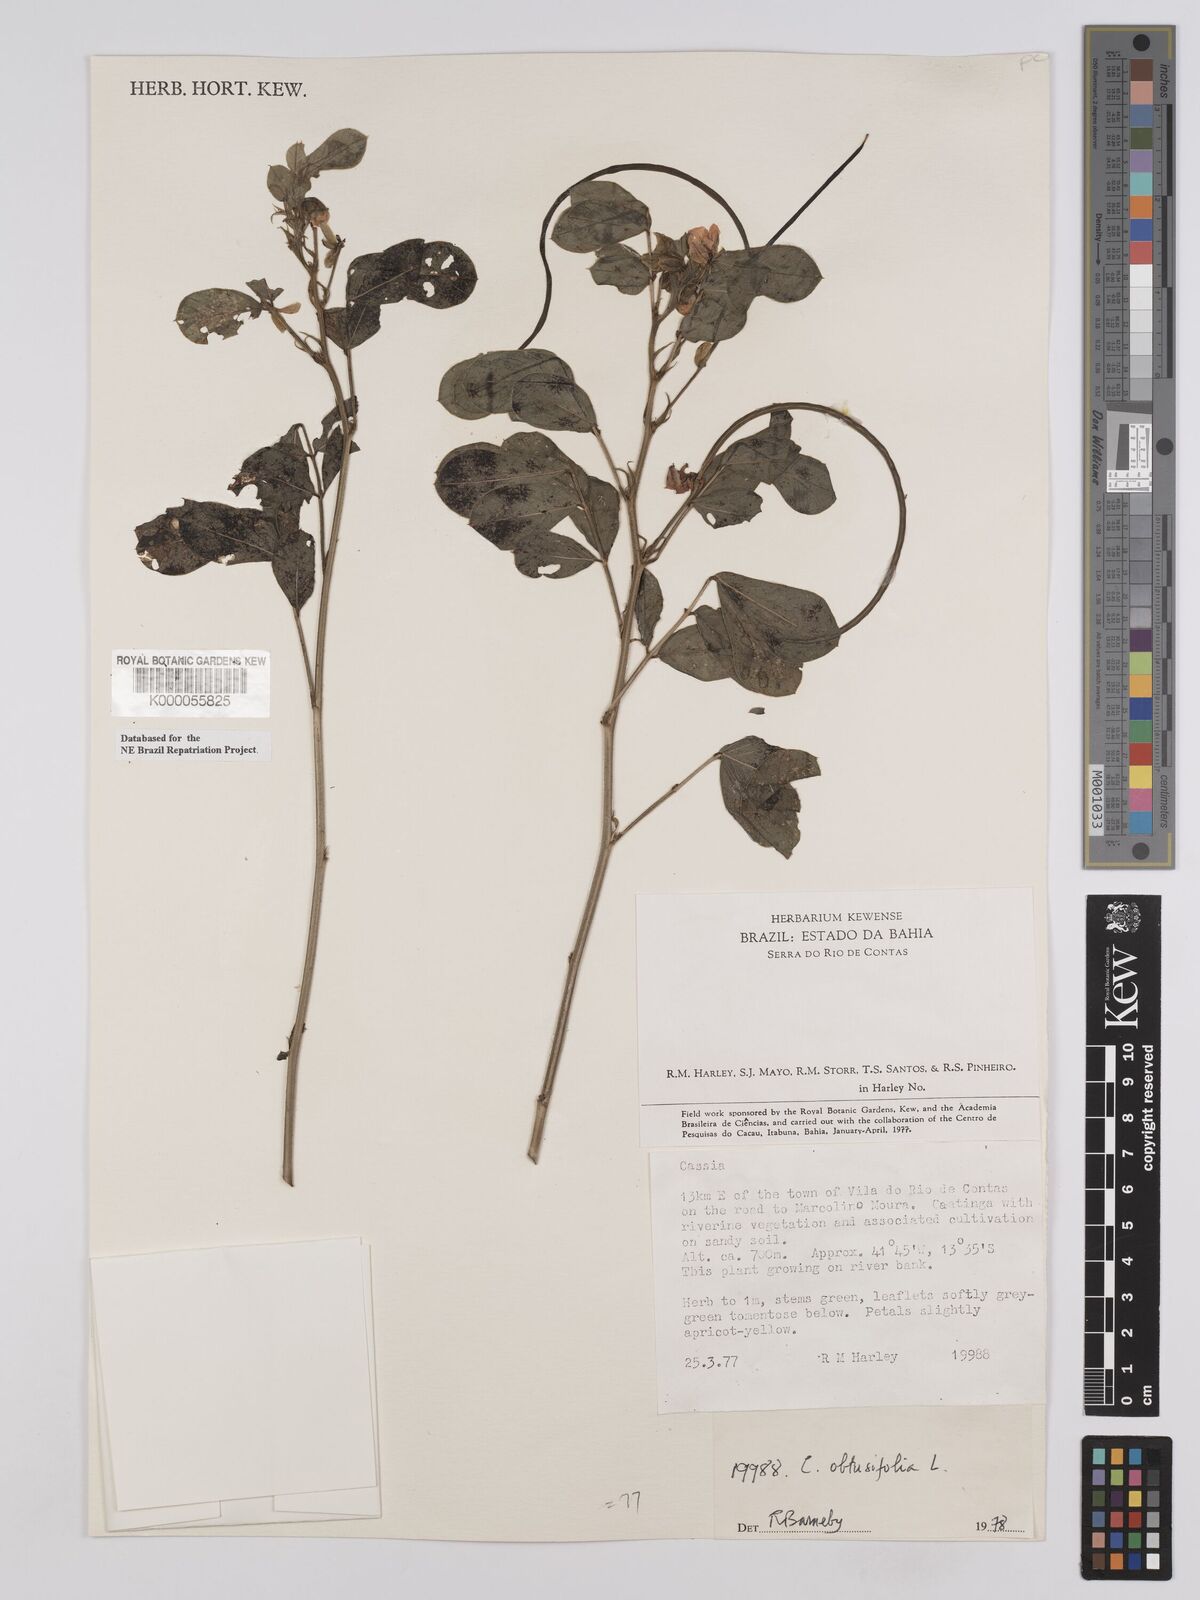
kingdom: Plantae
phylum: Tracheophyta
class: Magnoliopsida
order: Fabales
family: Fabaceae
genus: Senna
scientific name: Senna obtusifolia
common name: Java-bean
